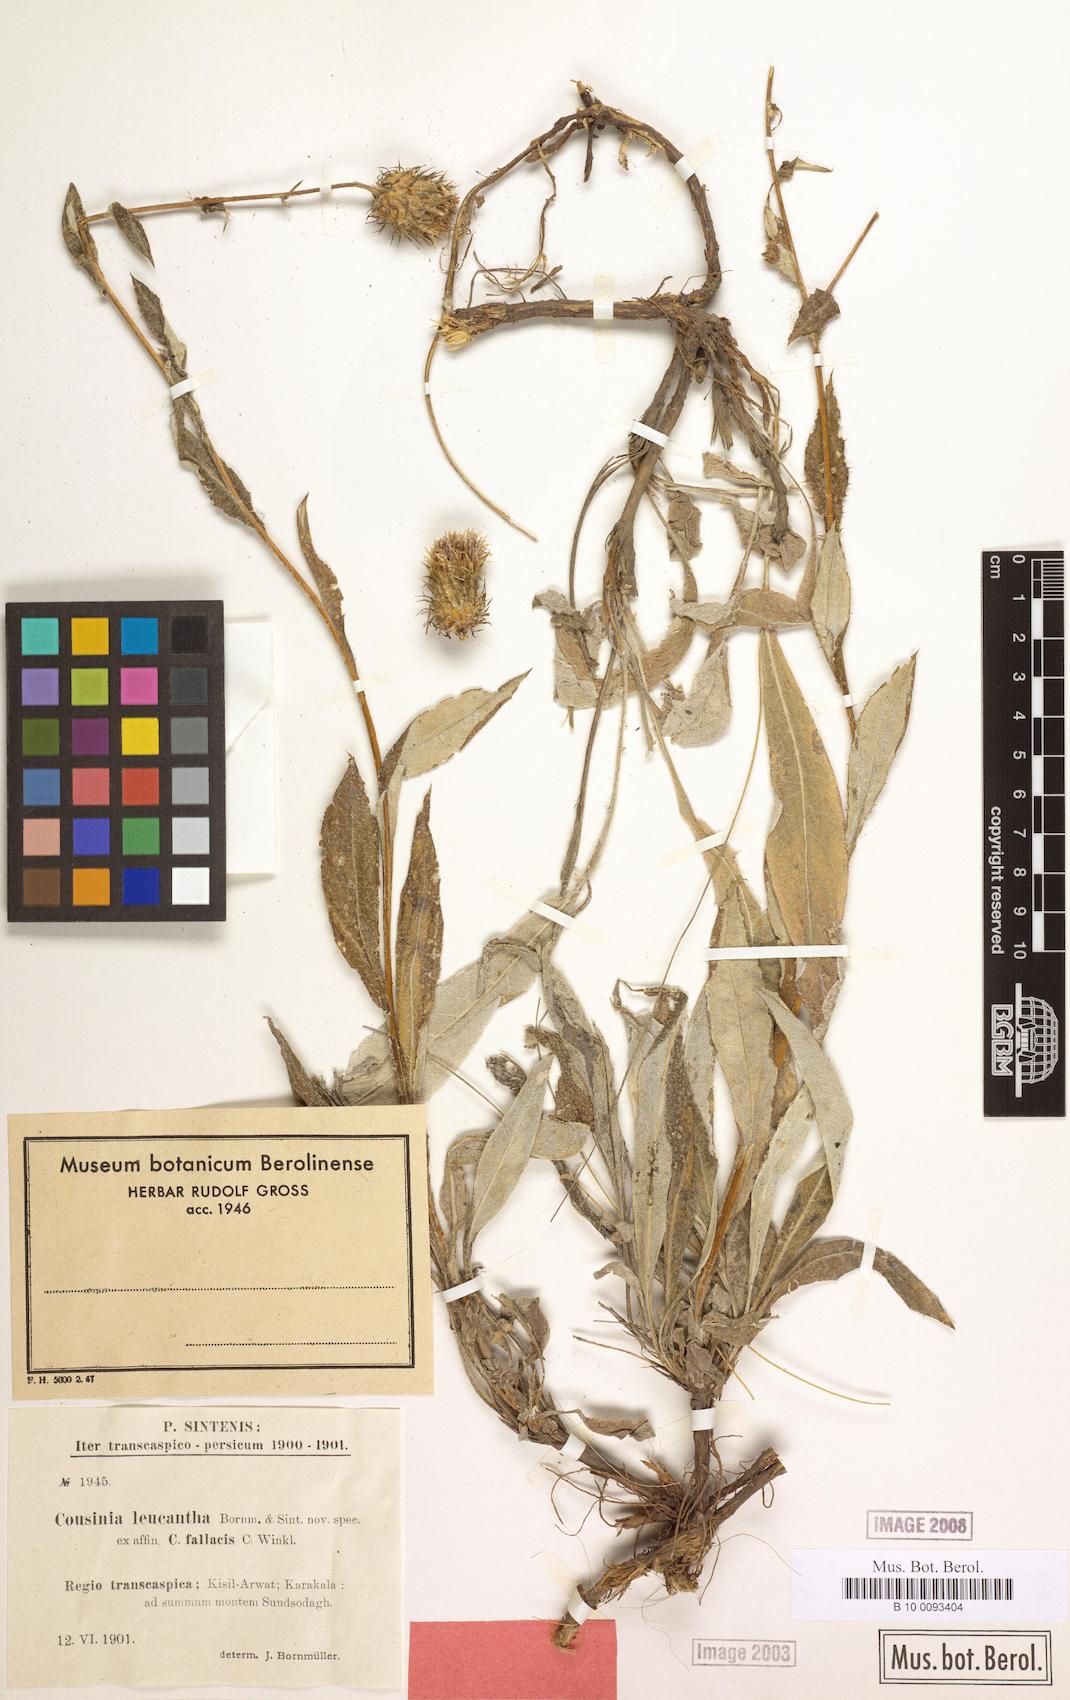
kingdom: Plantae
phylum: Tracheophyta
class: Magnoliopsida
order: Asterales
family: Asteraceae
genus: Cousinia
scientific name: Cousinia leucantha
